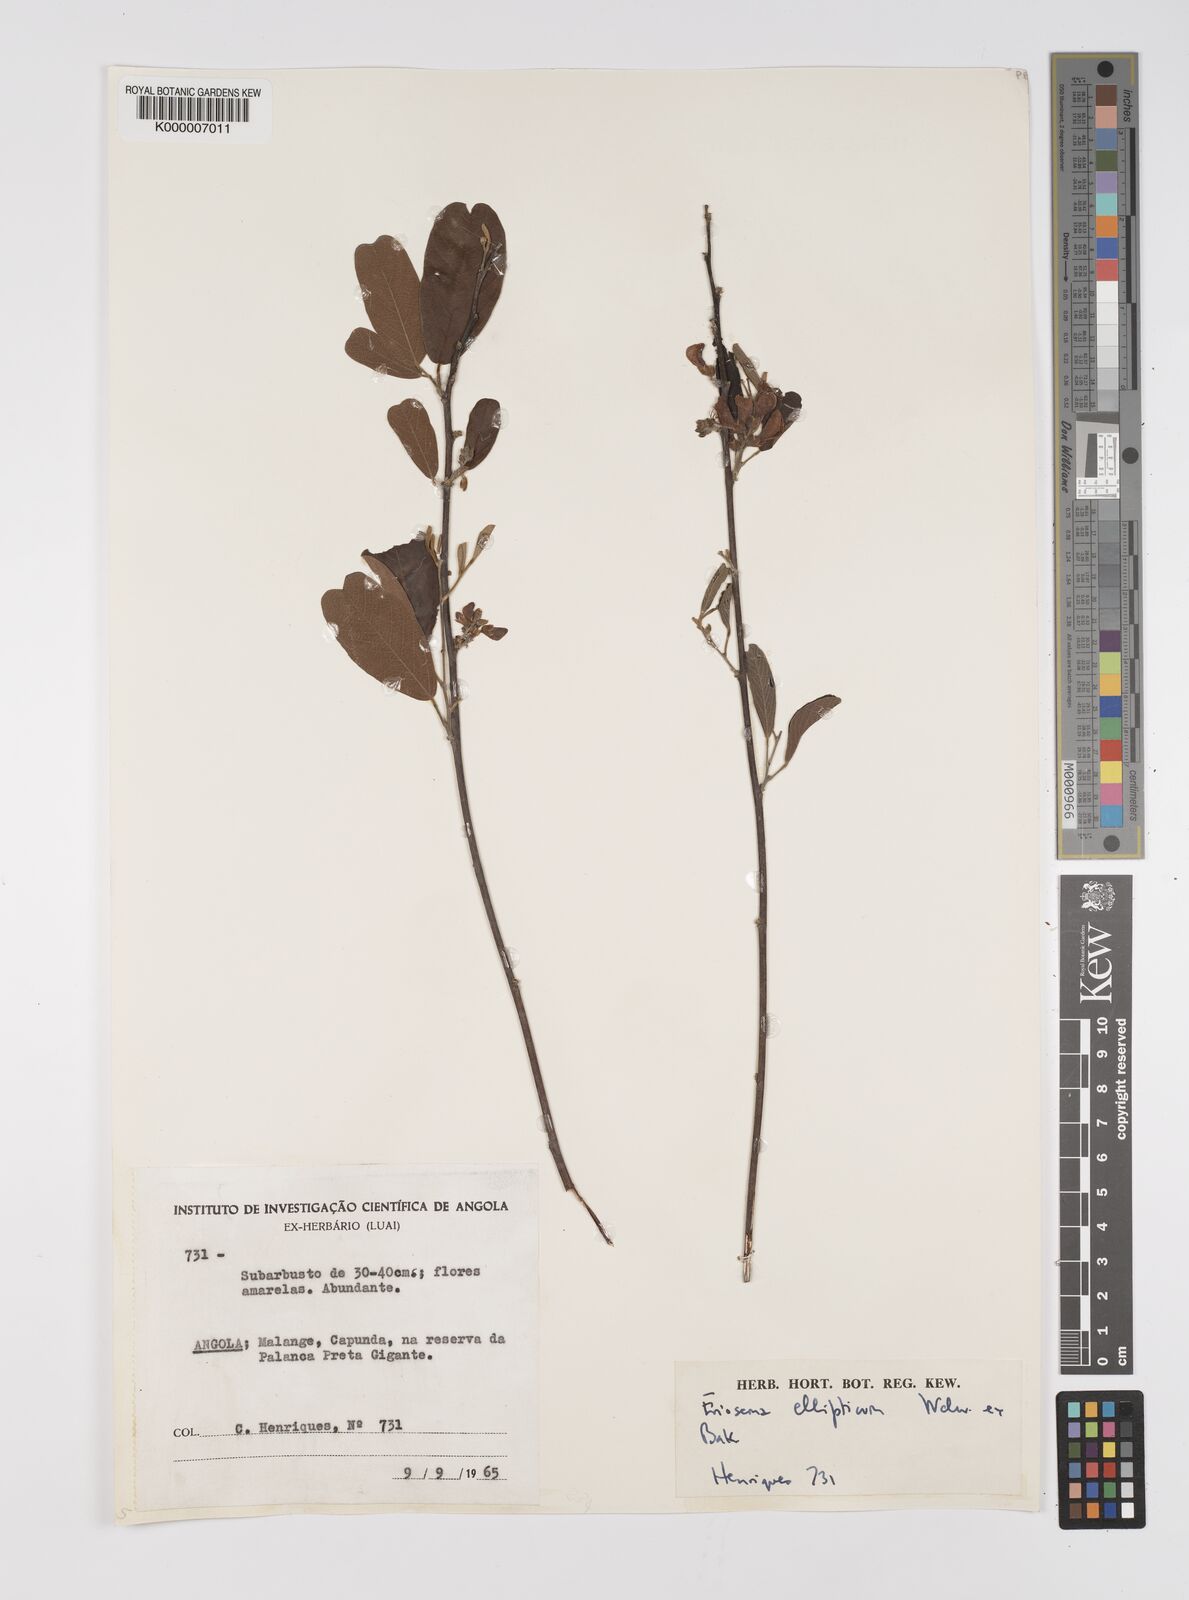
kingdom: Plantae
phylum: Tracheophyta
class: Magnoliopsida
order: Fabales
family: Fabaceae
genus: Eriosema
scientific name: Eriosema ellipticum
